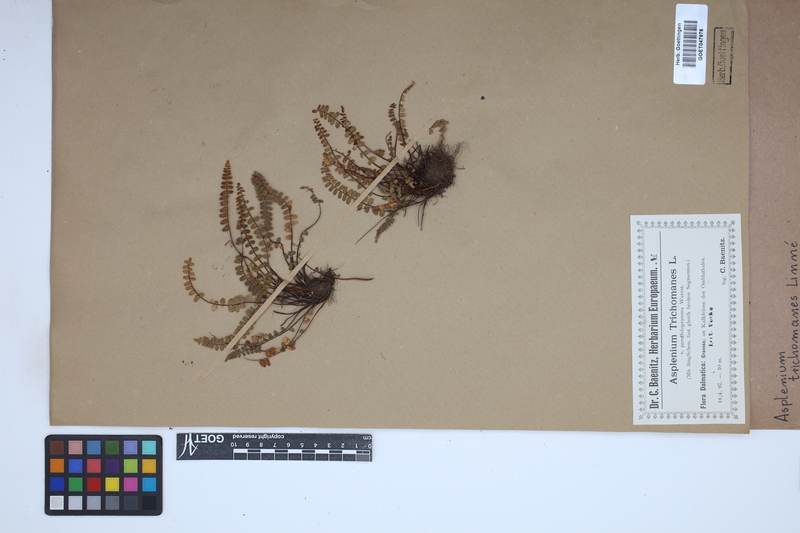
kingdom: Plantae
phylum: Tracheophyta
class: Polypodiopsida
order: Polypodiales
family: Aspleniaceae
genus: Asplenium
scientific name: Asplenium trichomanes
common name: Maidenhair spleenwort
